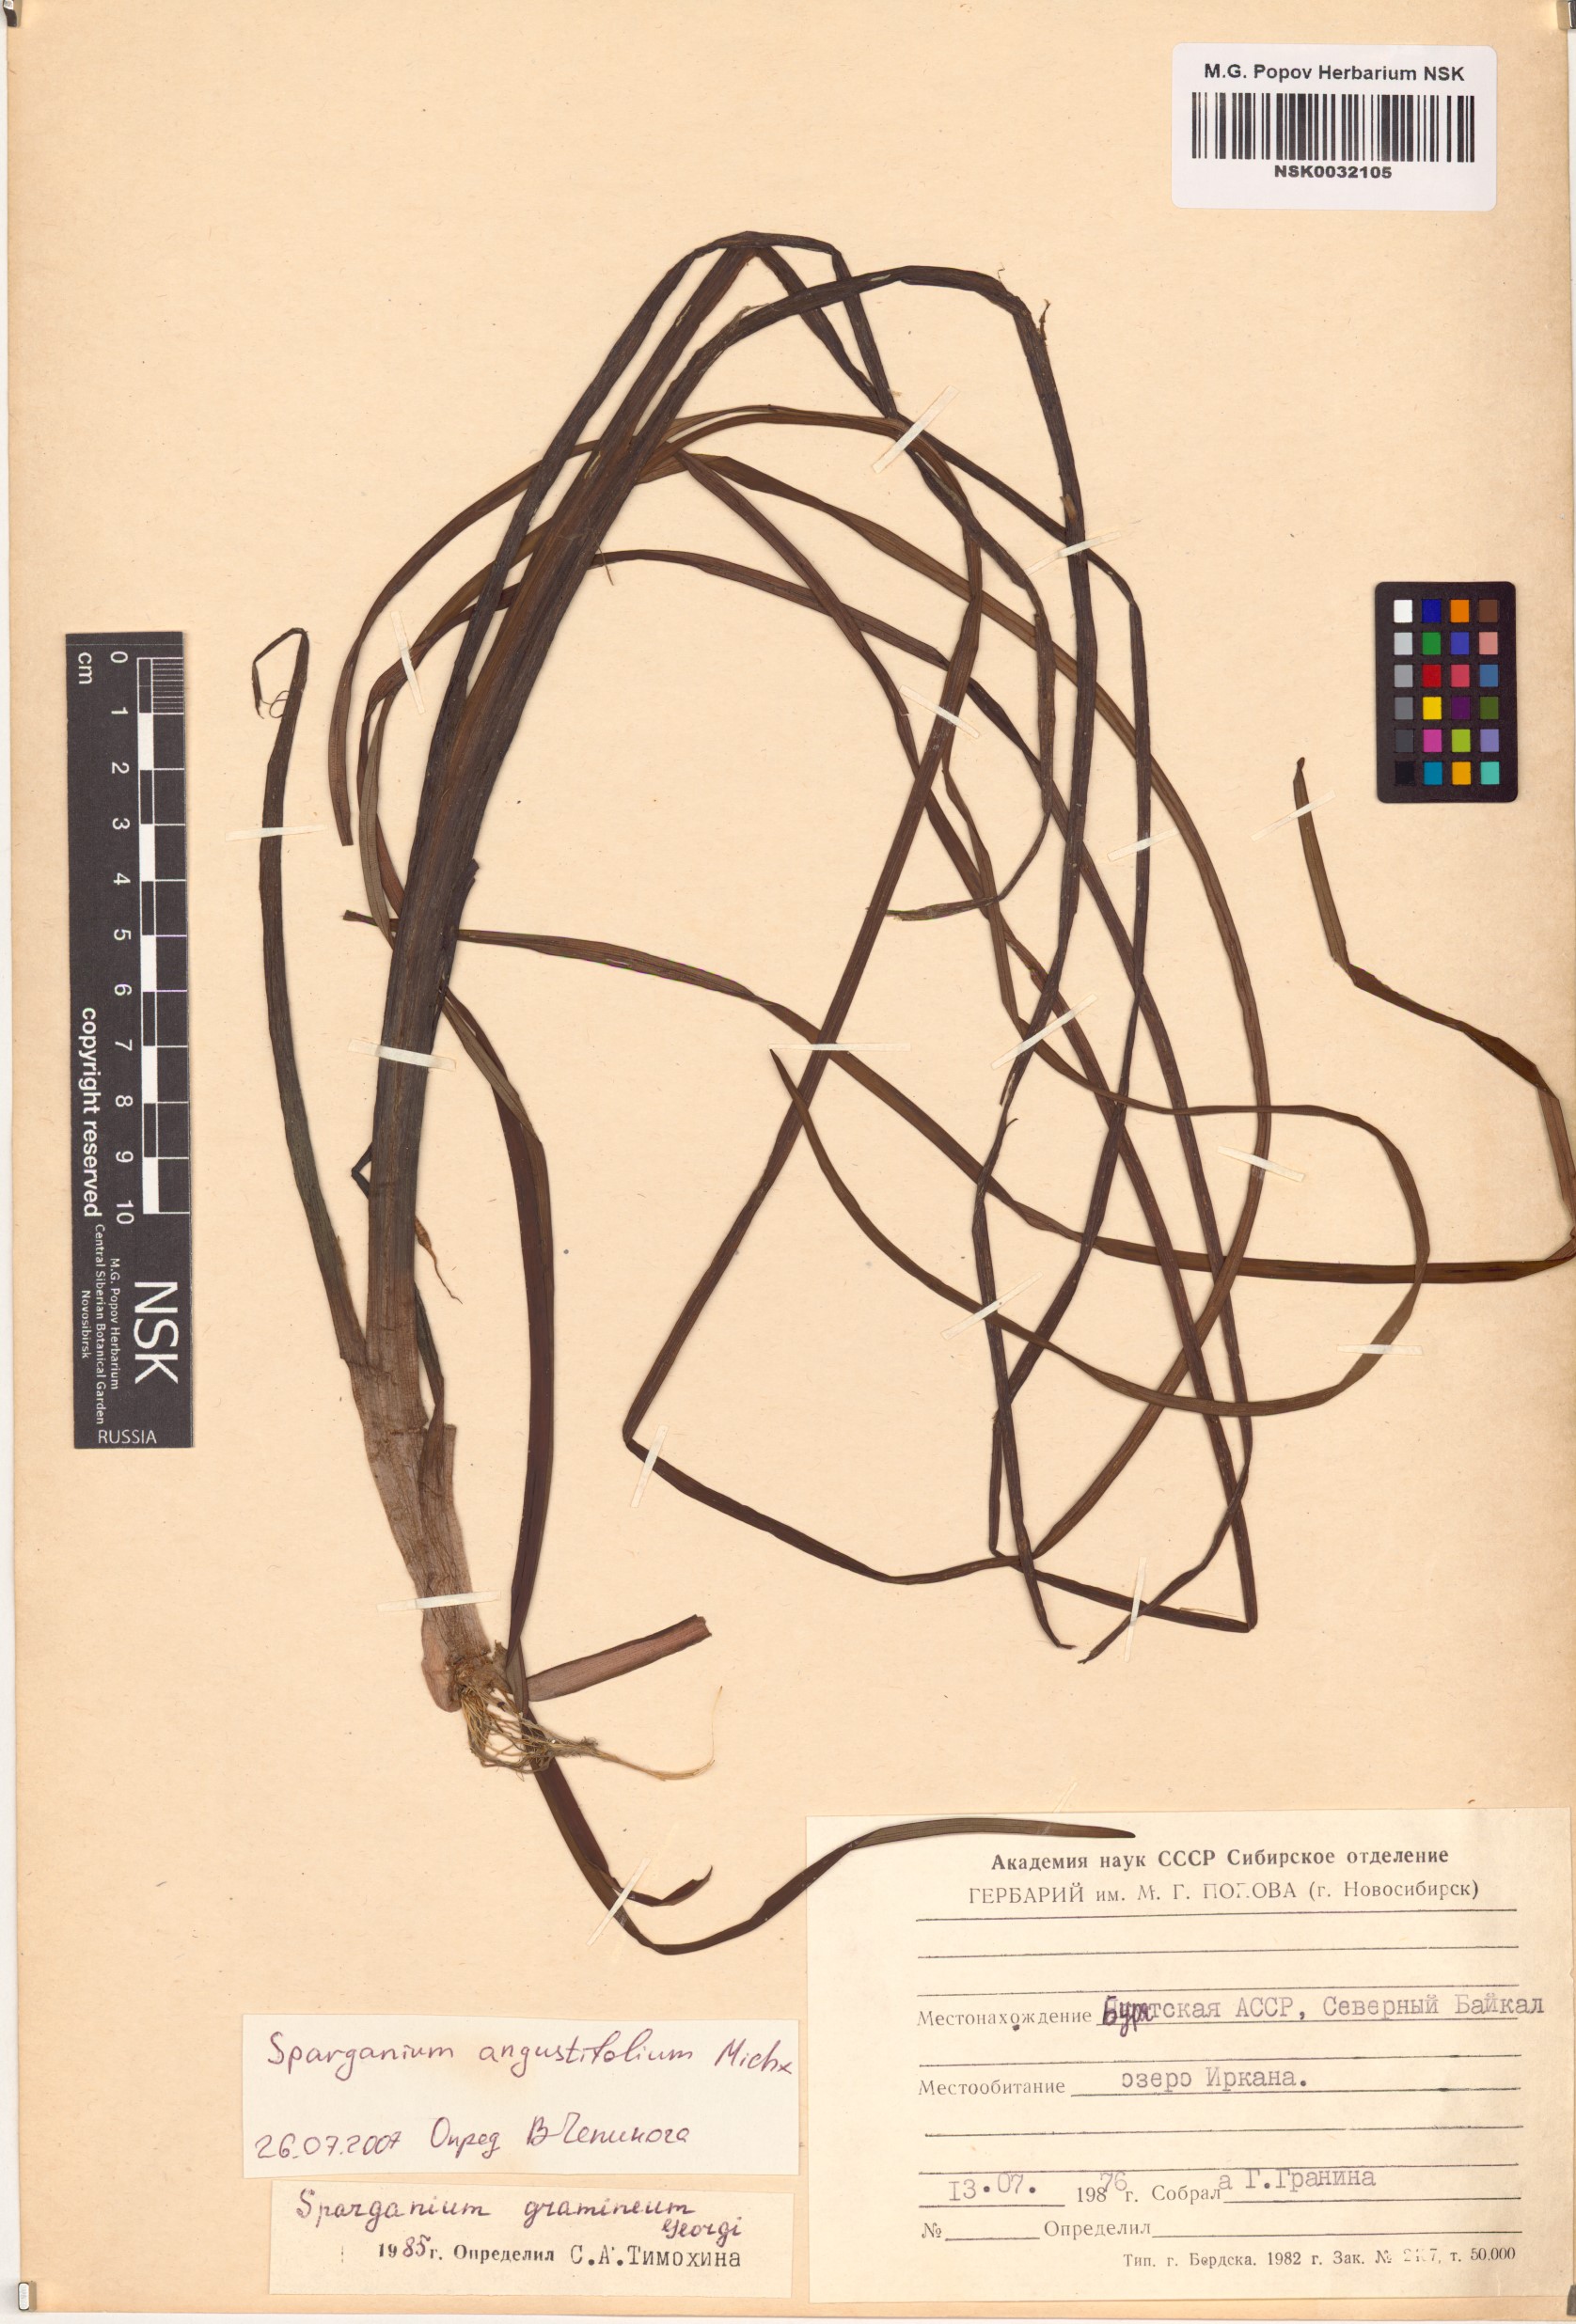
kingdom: Plantae
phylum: Tracheophyta
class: Liliopsida
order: Poales
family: Typhaceae
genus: Sparganium
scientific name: Sparganium angustifolium
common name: Floating bur-reed
